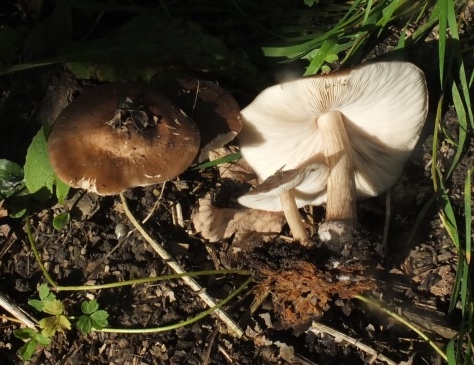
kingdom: Fungi
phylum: Basidiomycota
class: Agaricomycetes
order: Agaricales
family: Pluteaceae
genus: Pluteus
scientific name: Pluteus cervinus
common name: sodfarvet skærmhat
